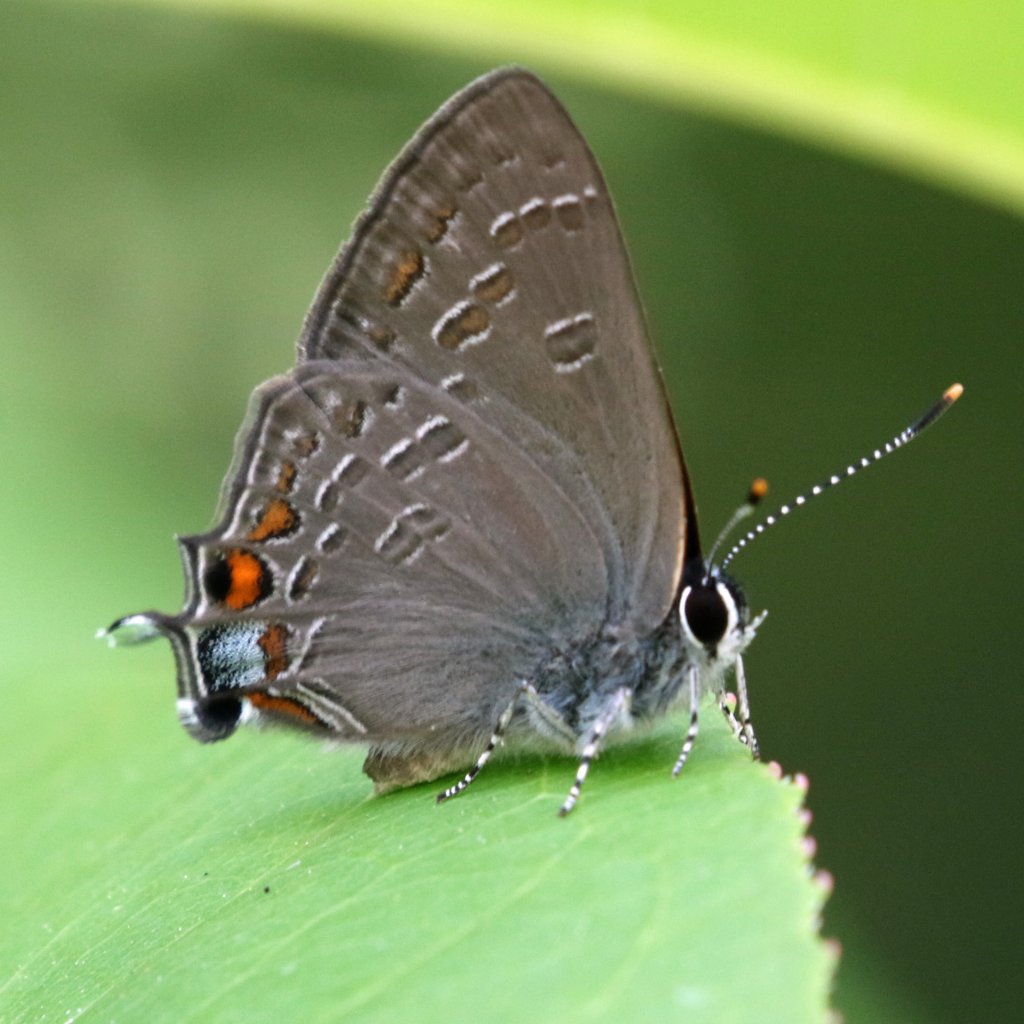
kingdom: Animalia
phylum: Arthropoda
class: Insecta
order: Lepidoptera
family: Lycaenidae
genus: Strymon
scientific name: Strymon kingi
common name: King's Hairstreak
